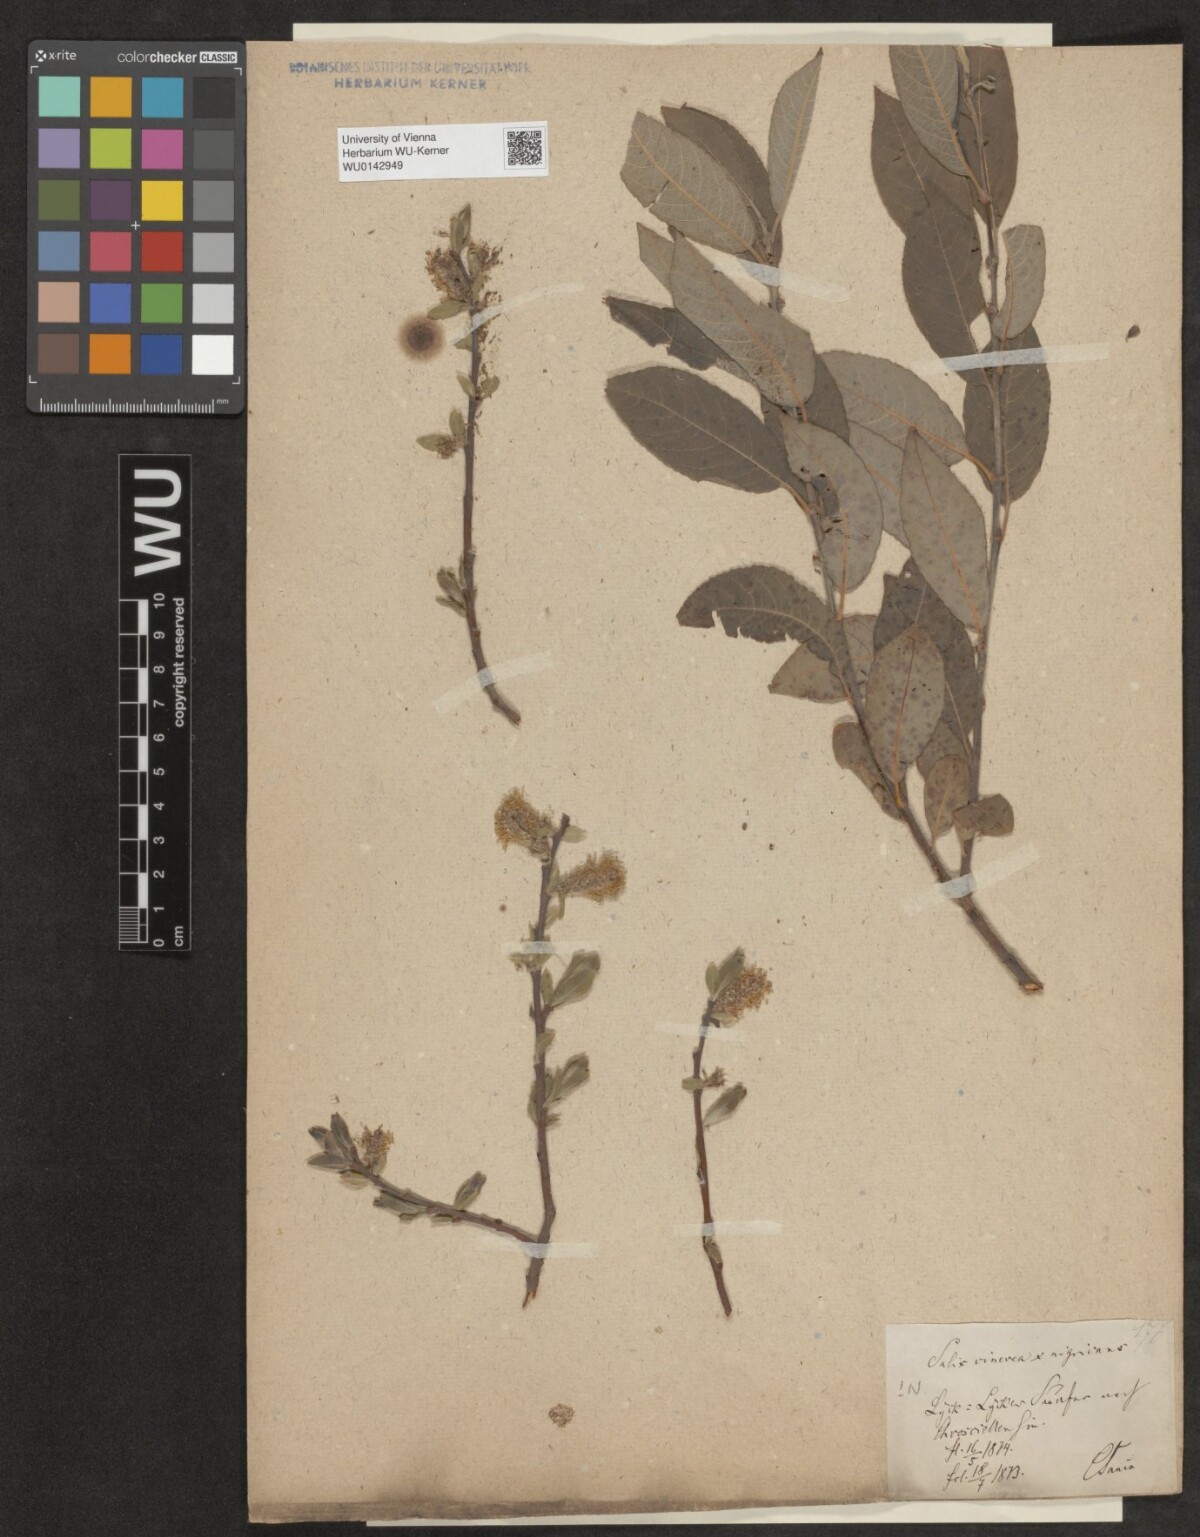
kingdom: Plantae
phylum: Tracheophyta
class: Magnoliopsida
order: Malpighiales
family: Salicaceae
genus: Salix
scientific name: Salix myrsinifolia
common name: Dark-leaved willow
